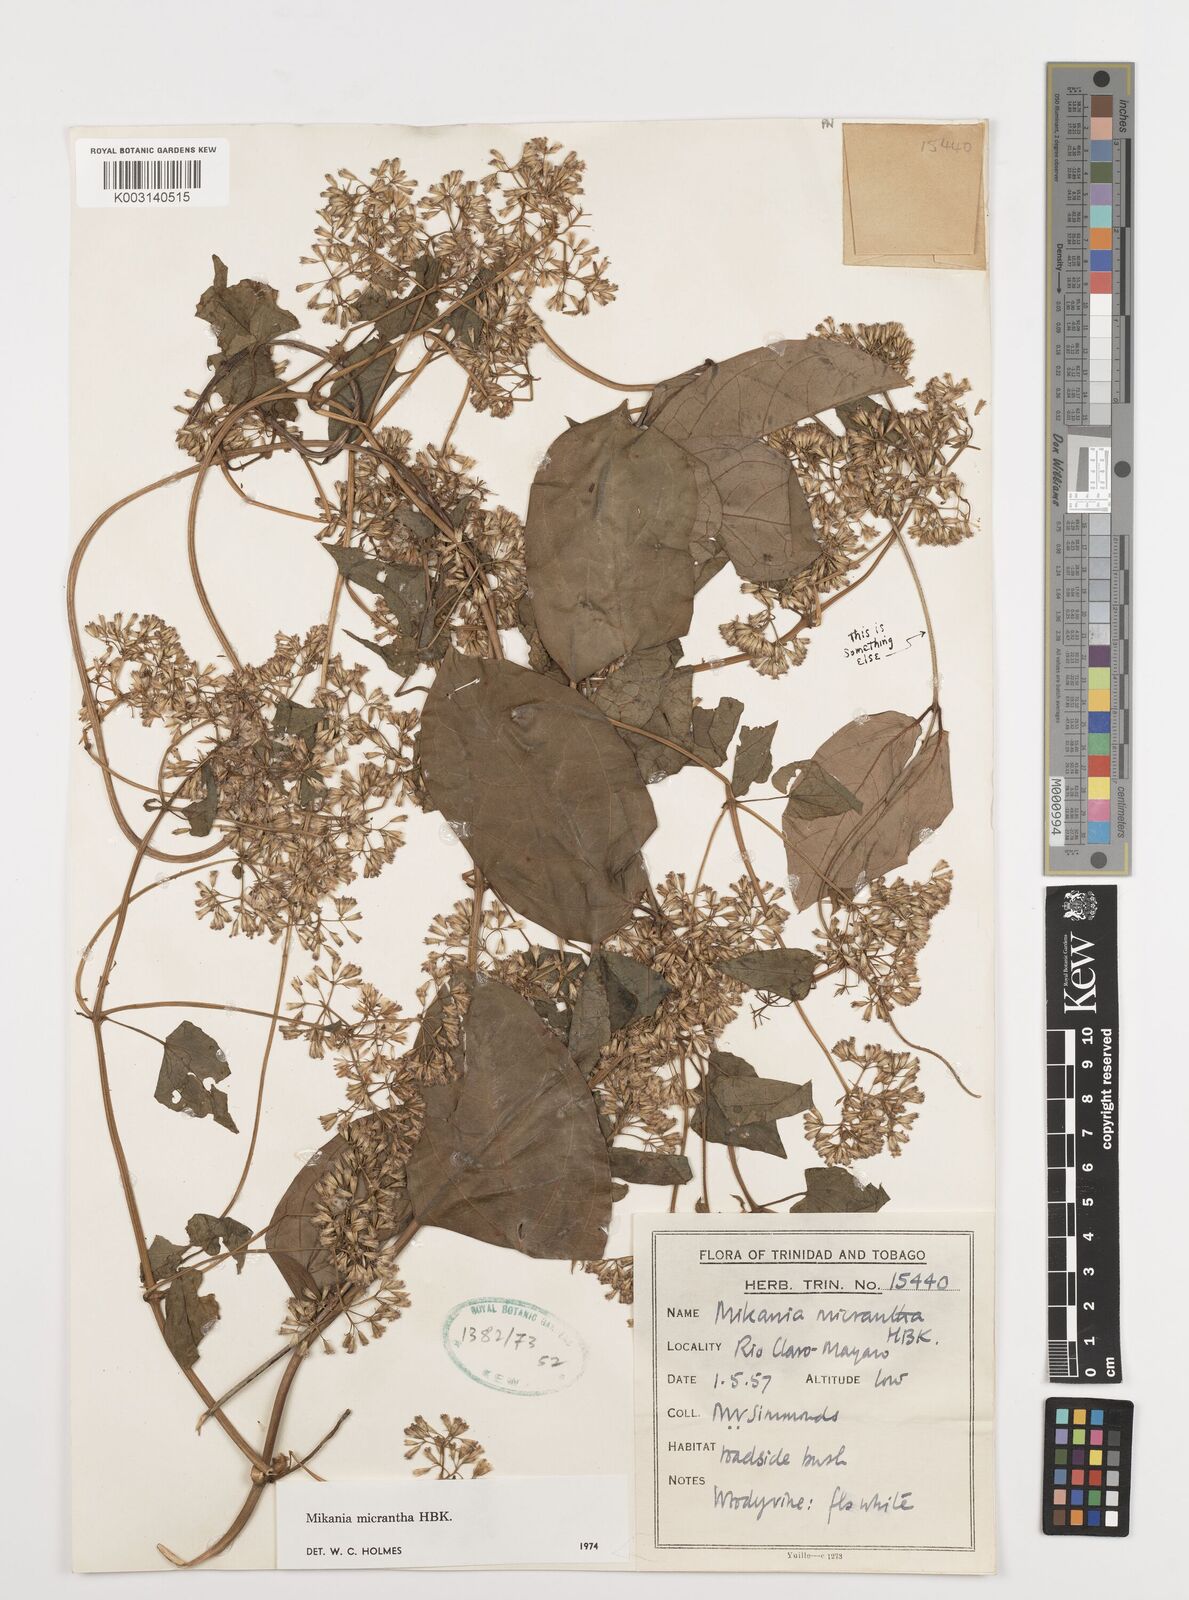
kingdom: Plantae
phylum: Tracheophyta
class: Magnoliopsida
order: Asterales
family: Asteraceae
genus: Mikania
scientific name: Mikania micrantha
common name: Mile-a-minute
